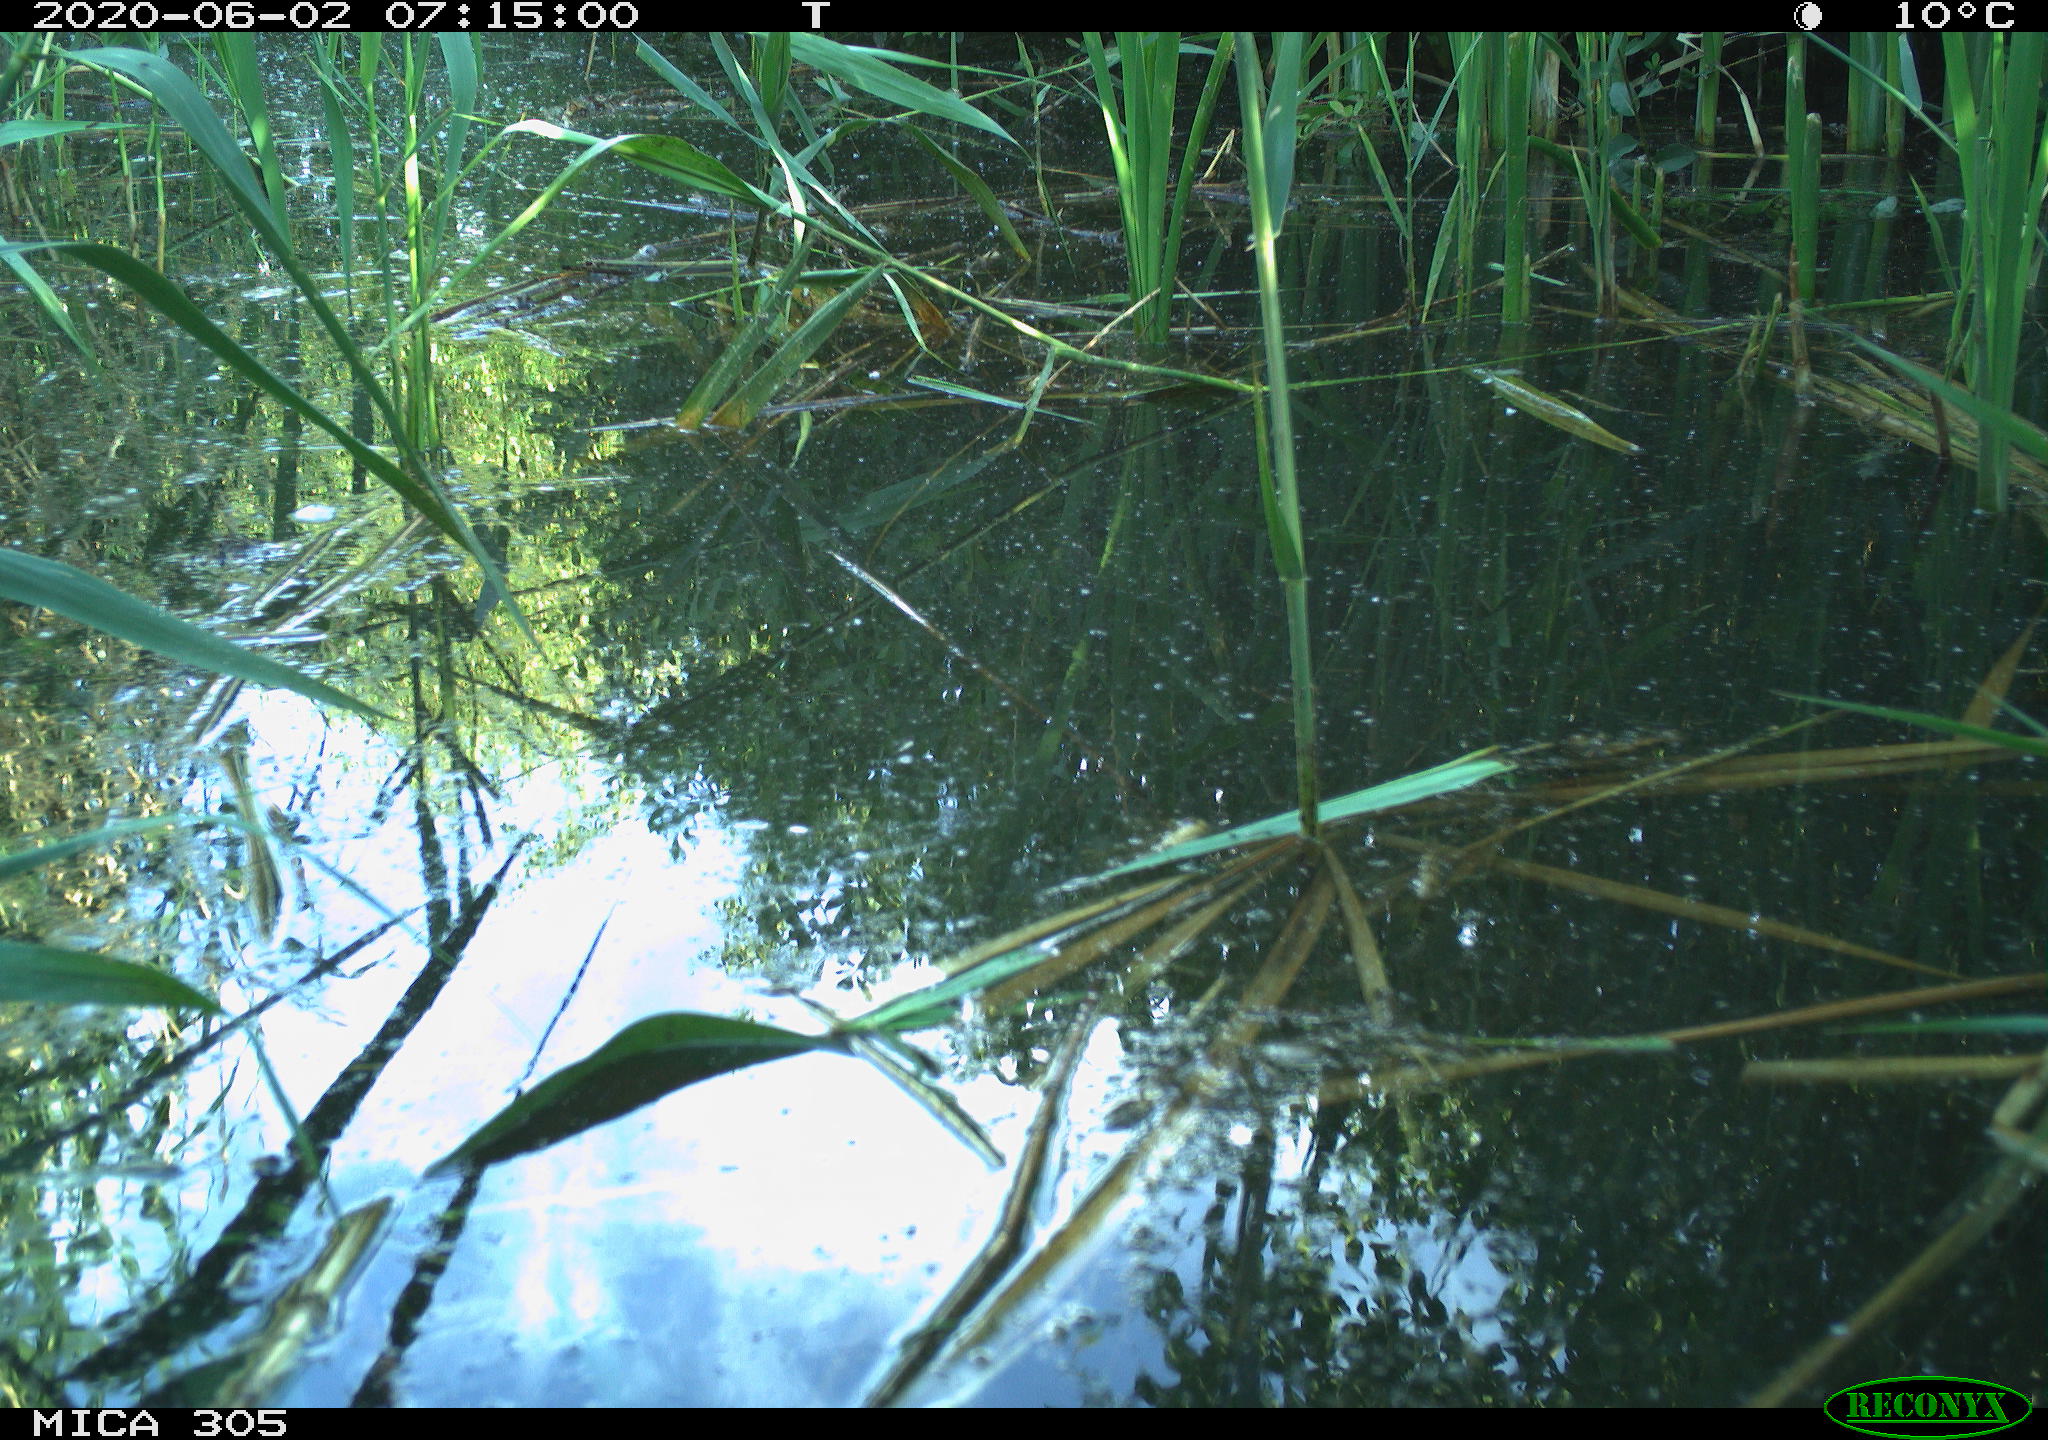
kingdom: Animalia
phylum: Chordata
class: Aves
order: Anseriformes
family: Anatidae
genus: Anas
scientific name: Anas platyrhynchos
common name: Mallard
